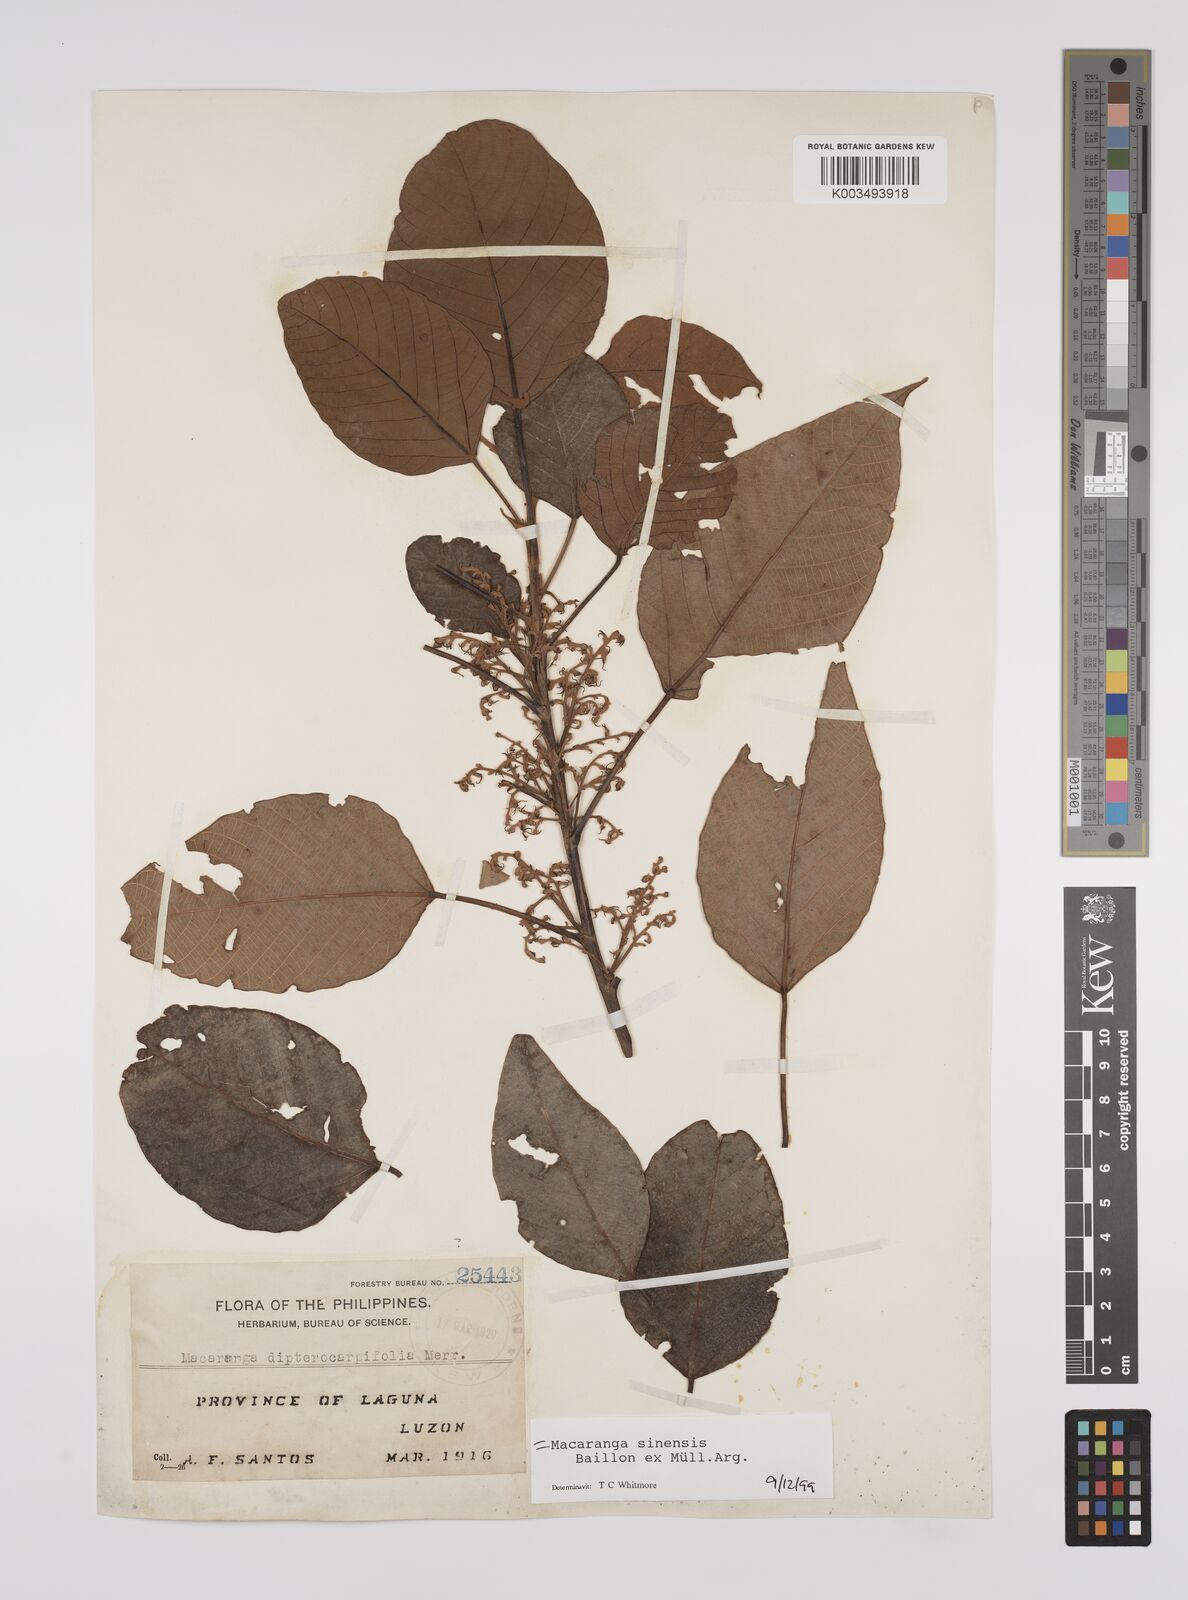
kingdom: Plantae
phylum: Tracheophyta
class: Magnoliopsida
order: Malpighiales
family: Euphorbiaceae
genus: Macaranga
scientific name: Macaranga sinensis
